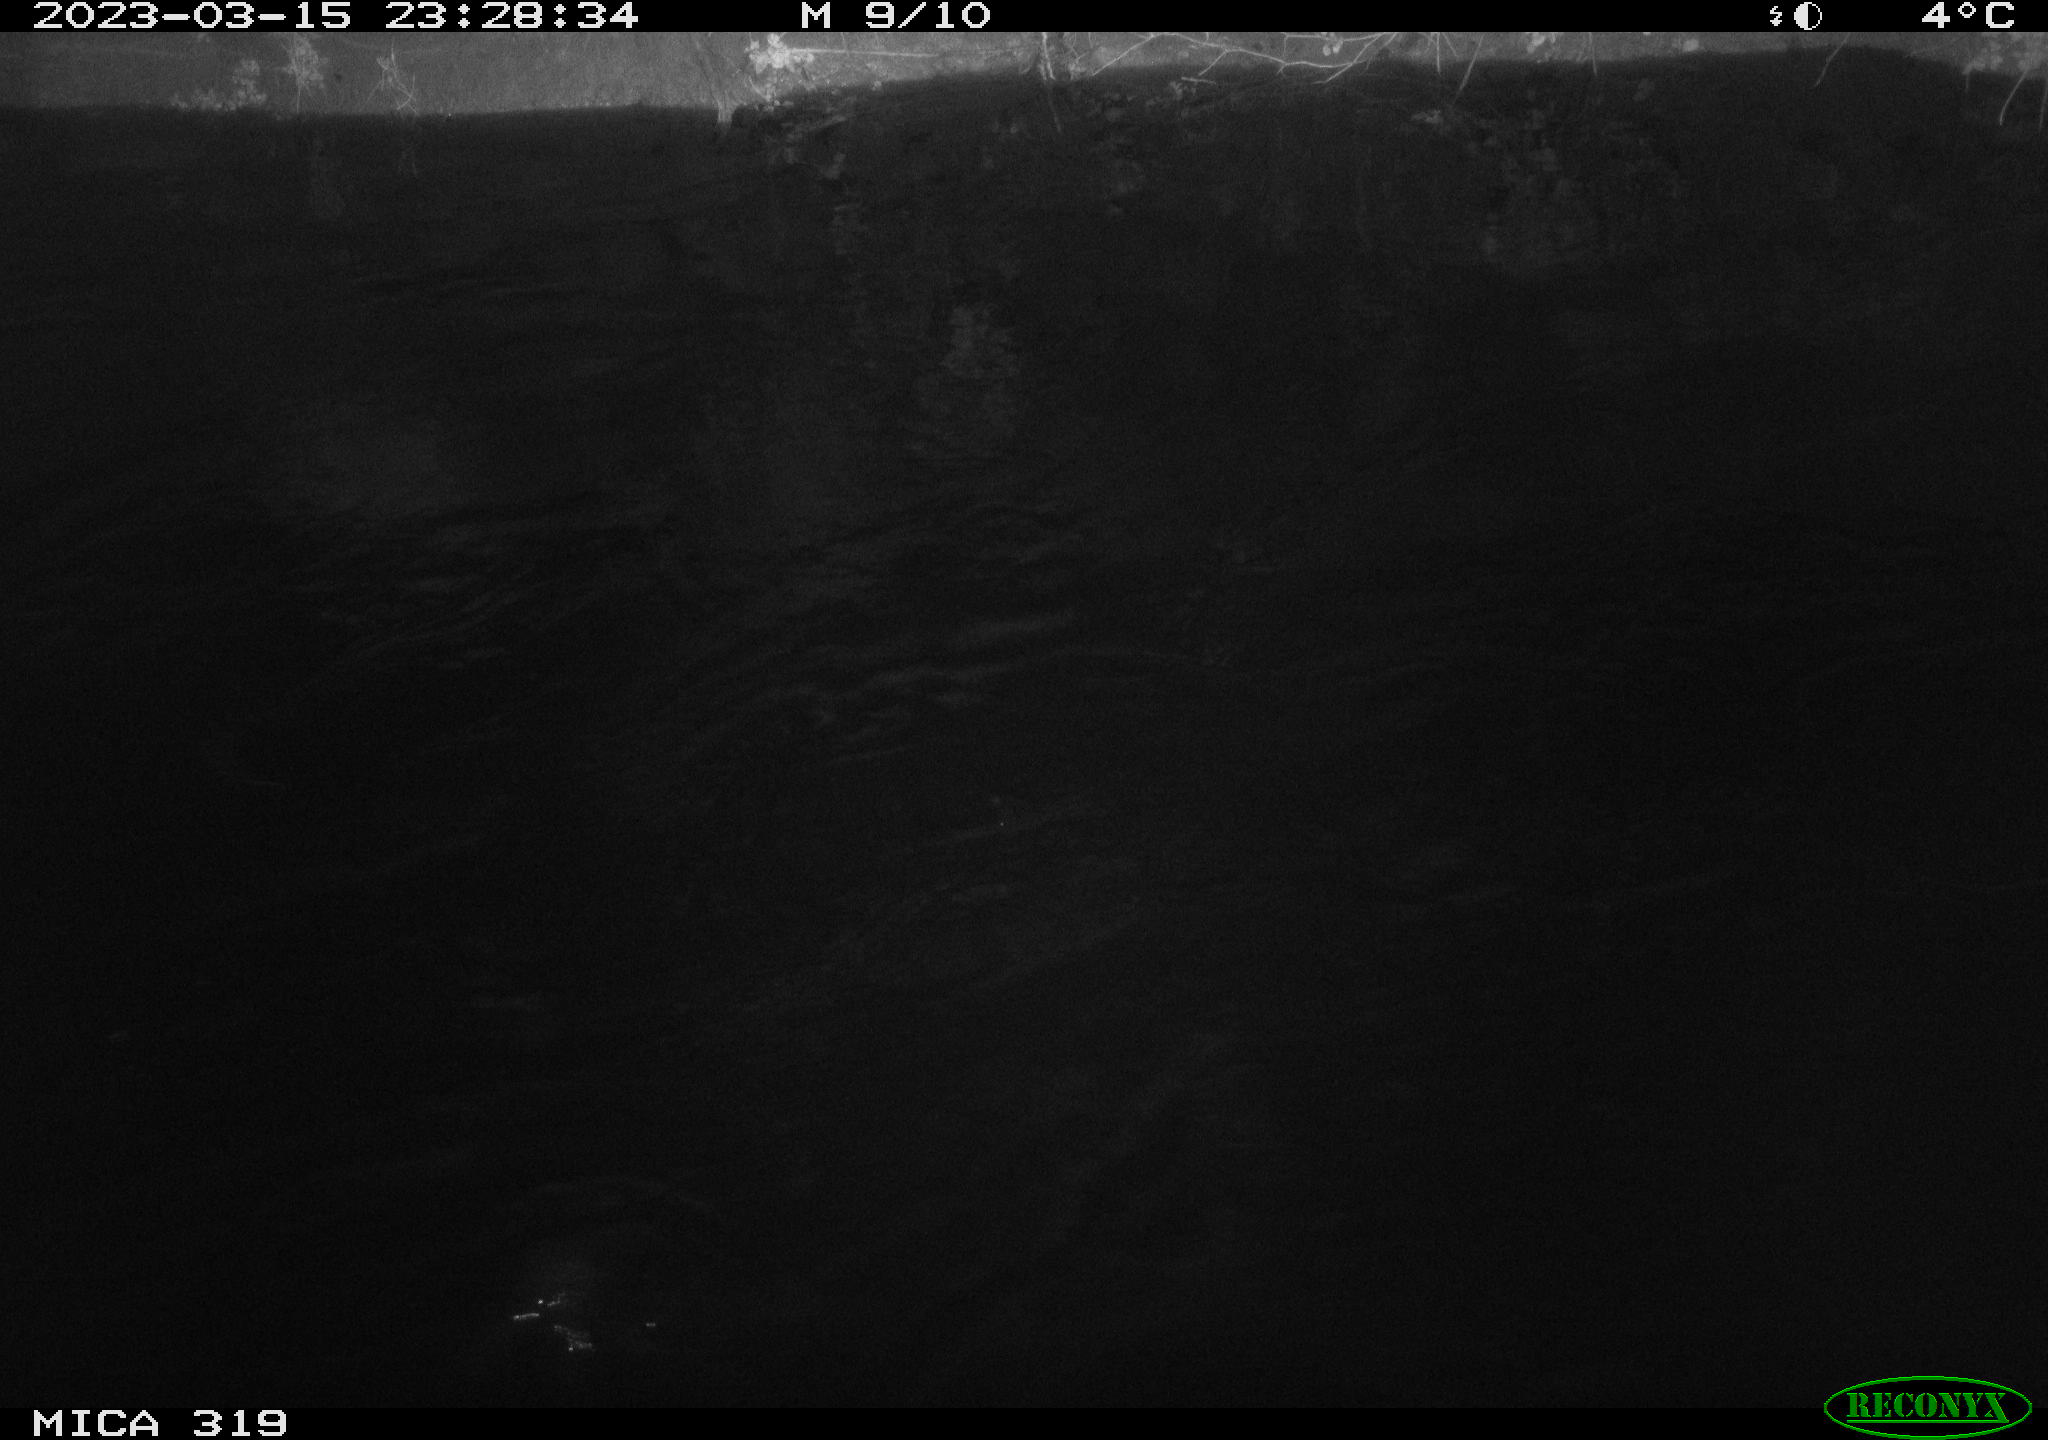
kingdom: Animalia
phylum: Chordata
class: Aves
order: Anseriformes
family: Anatidae
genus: Anas
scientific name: Anas
